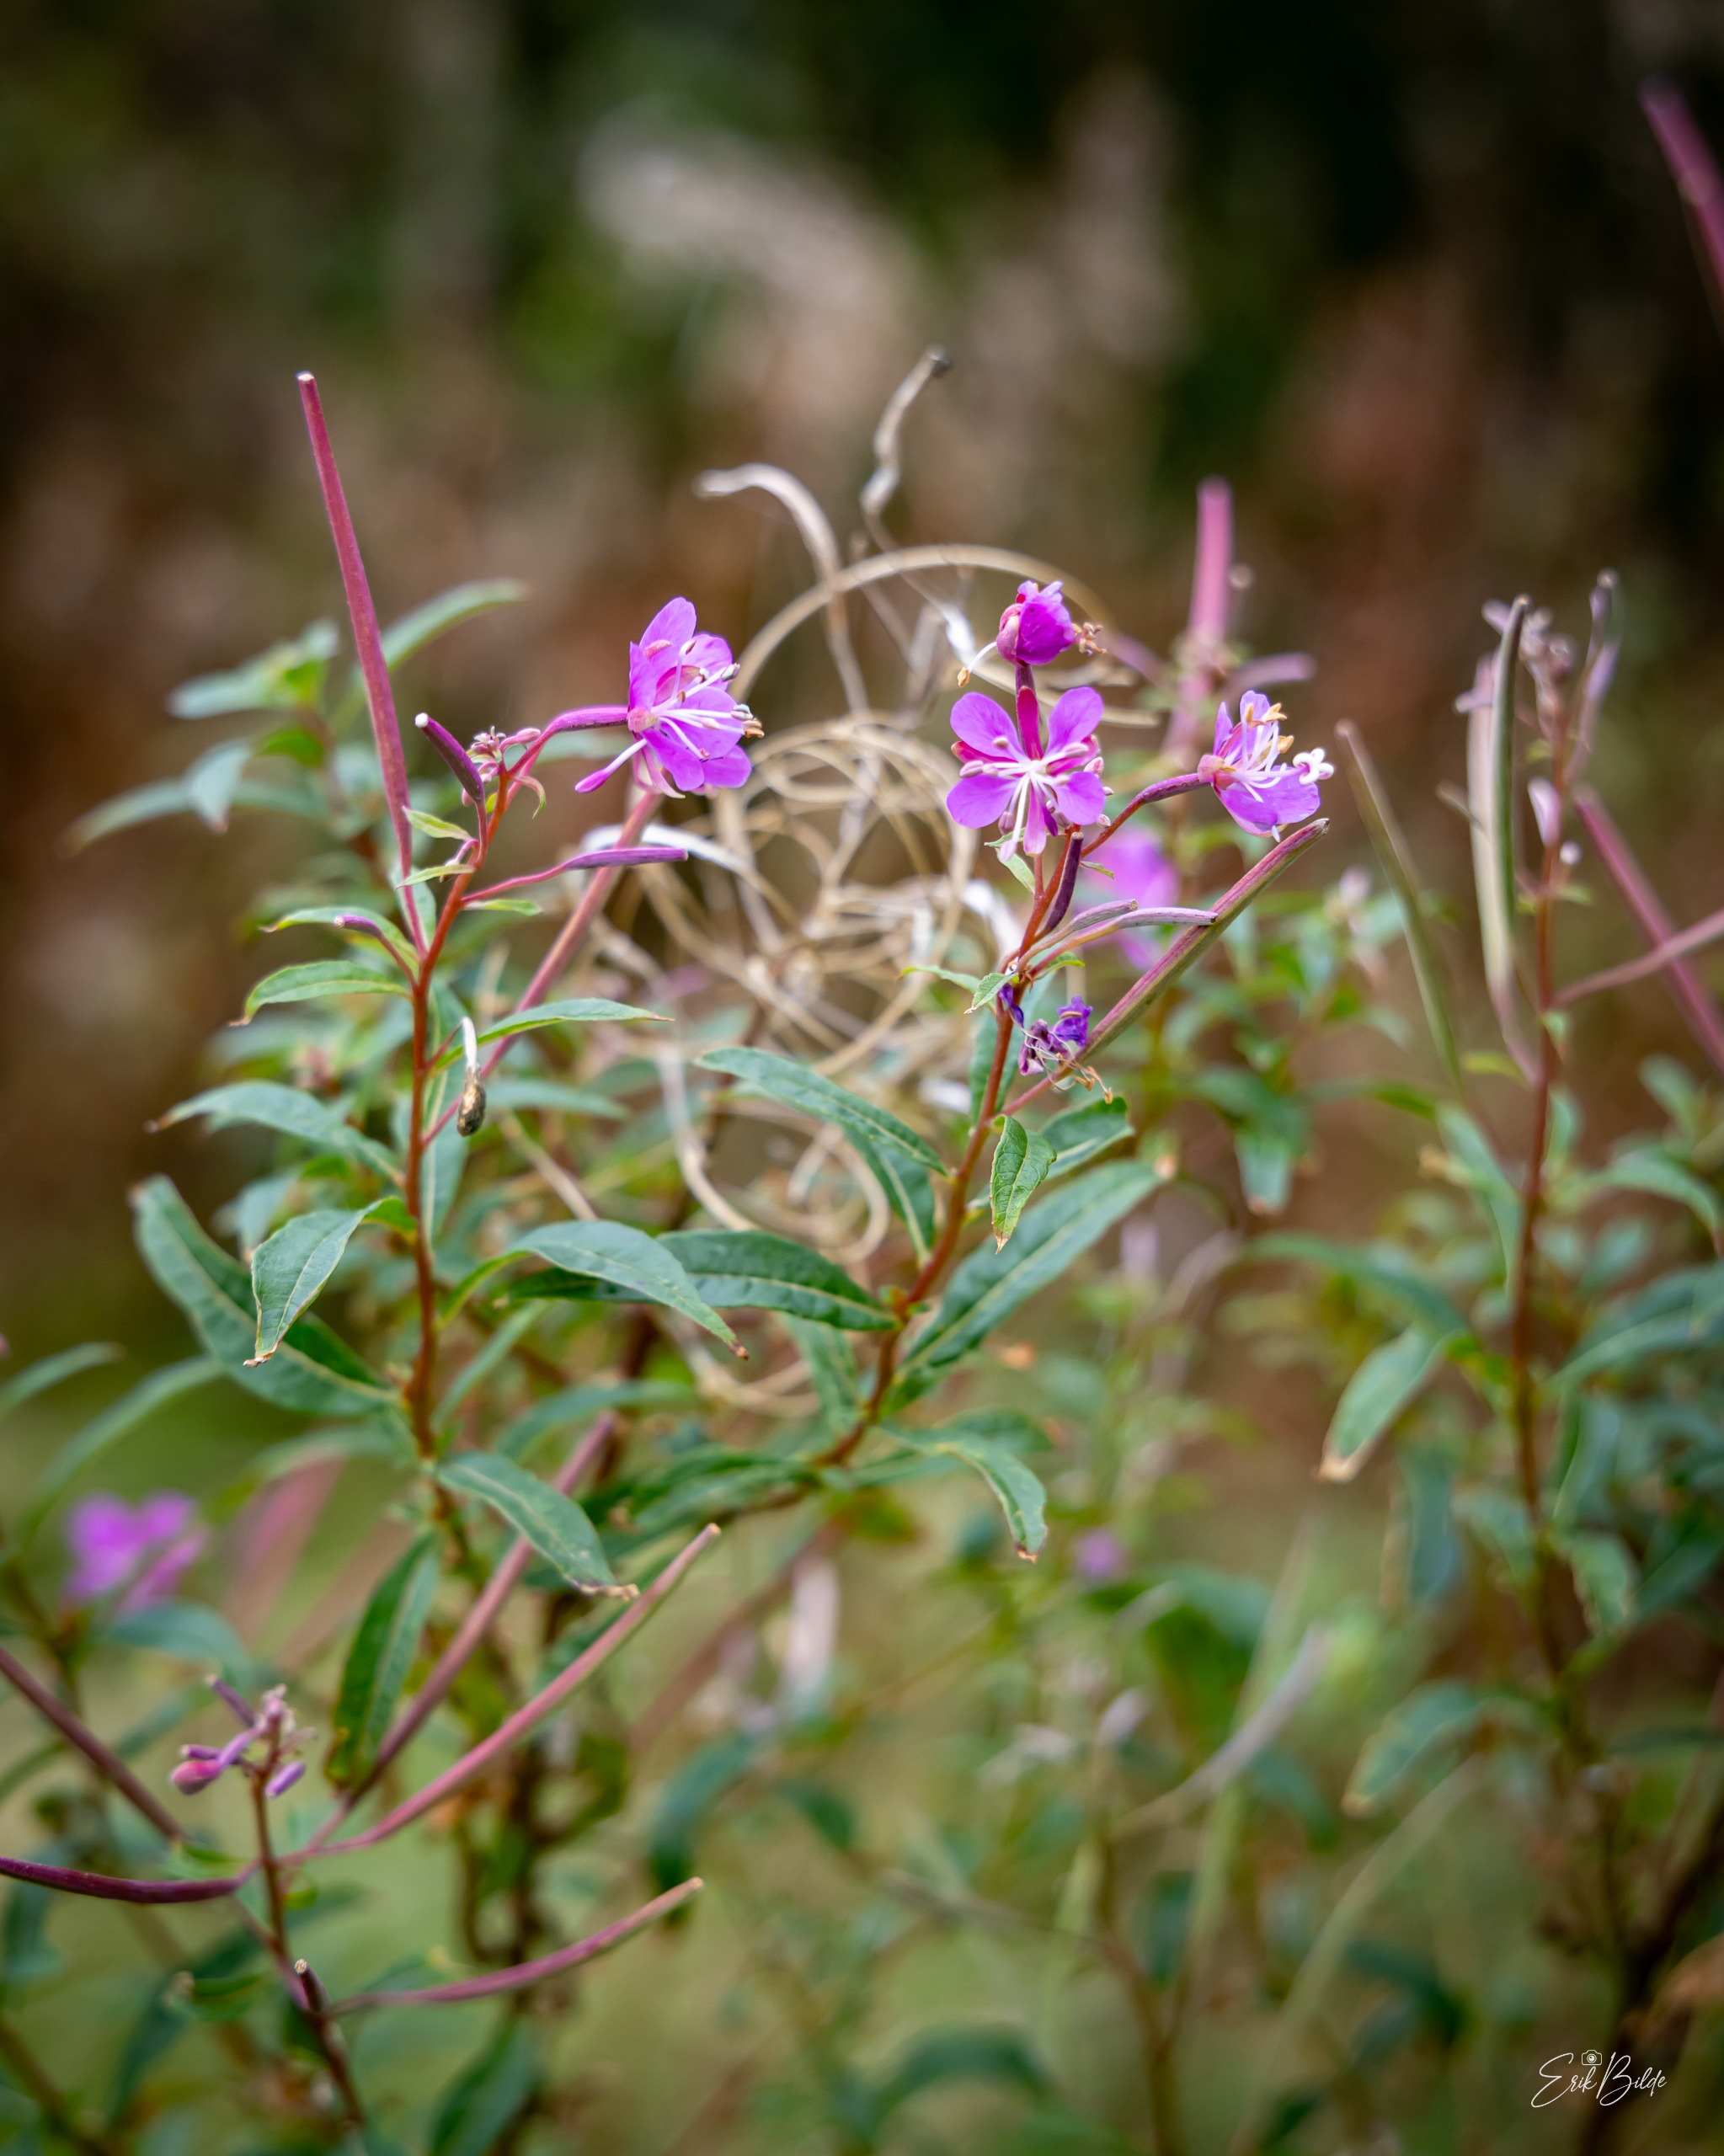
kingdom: Plantae
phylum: Tracheophyta
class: Magnoliopsida
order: Myrtales
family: Onagraceae
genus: Chamaenerion
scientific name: Chamaenerion angustifolium
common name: Gederams
